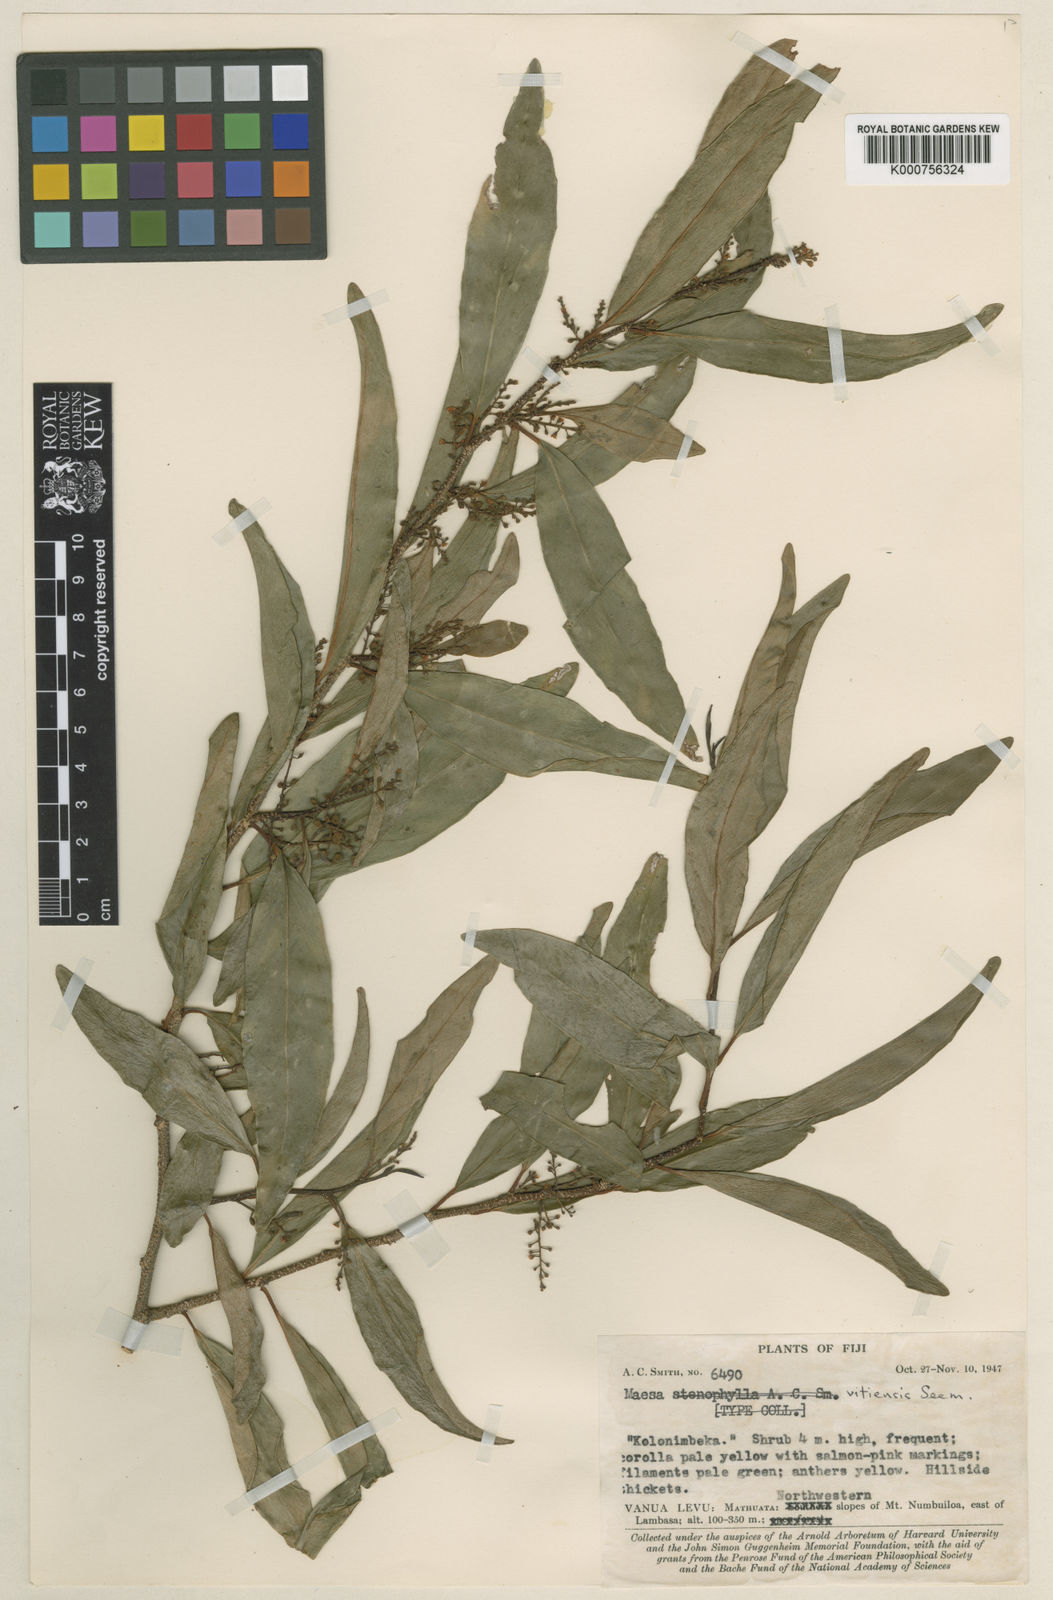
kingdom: Plantae
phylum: Tracheophyta
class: Magnoliopsida
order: Ericales
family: Primulaceae
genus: Maesa
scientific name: Maesa vitiensis
